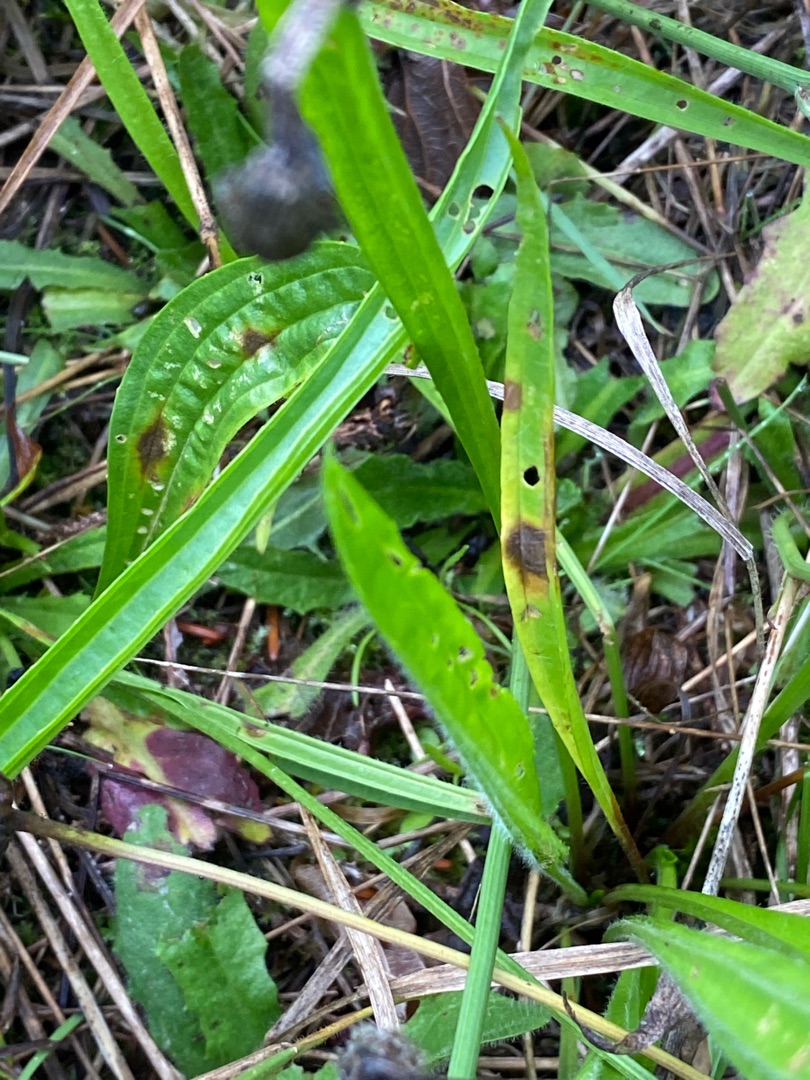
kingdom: Plantae
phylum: Tracheophyta
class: Magnoliopsida
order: Lamiales
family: Plantaginaceae
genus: Plantago
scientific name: Plantago lanceolata
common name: Lancet-vejbred
